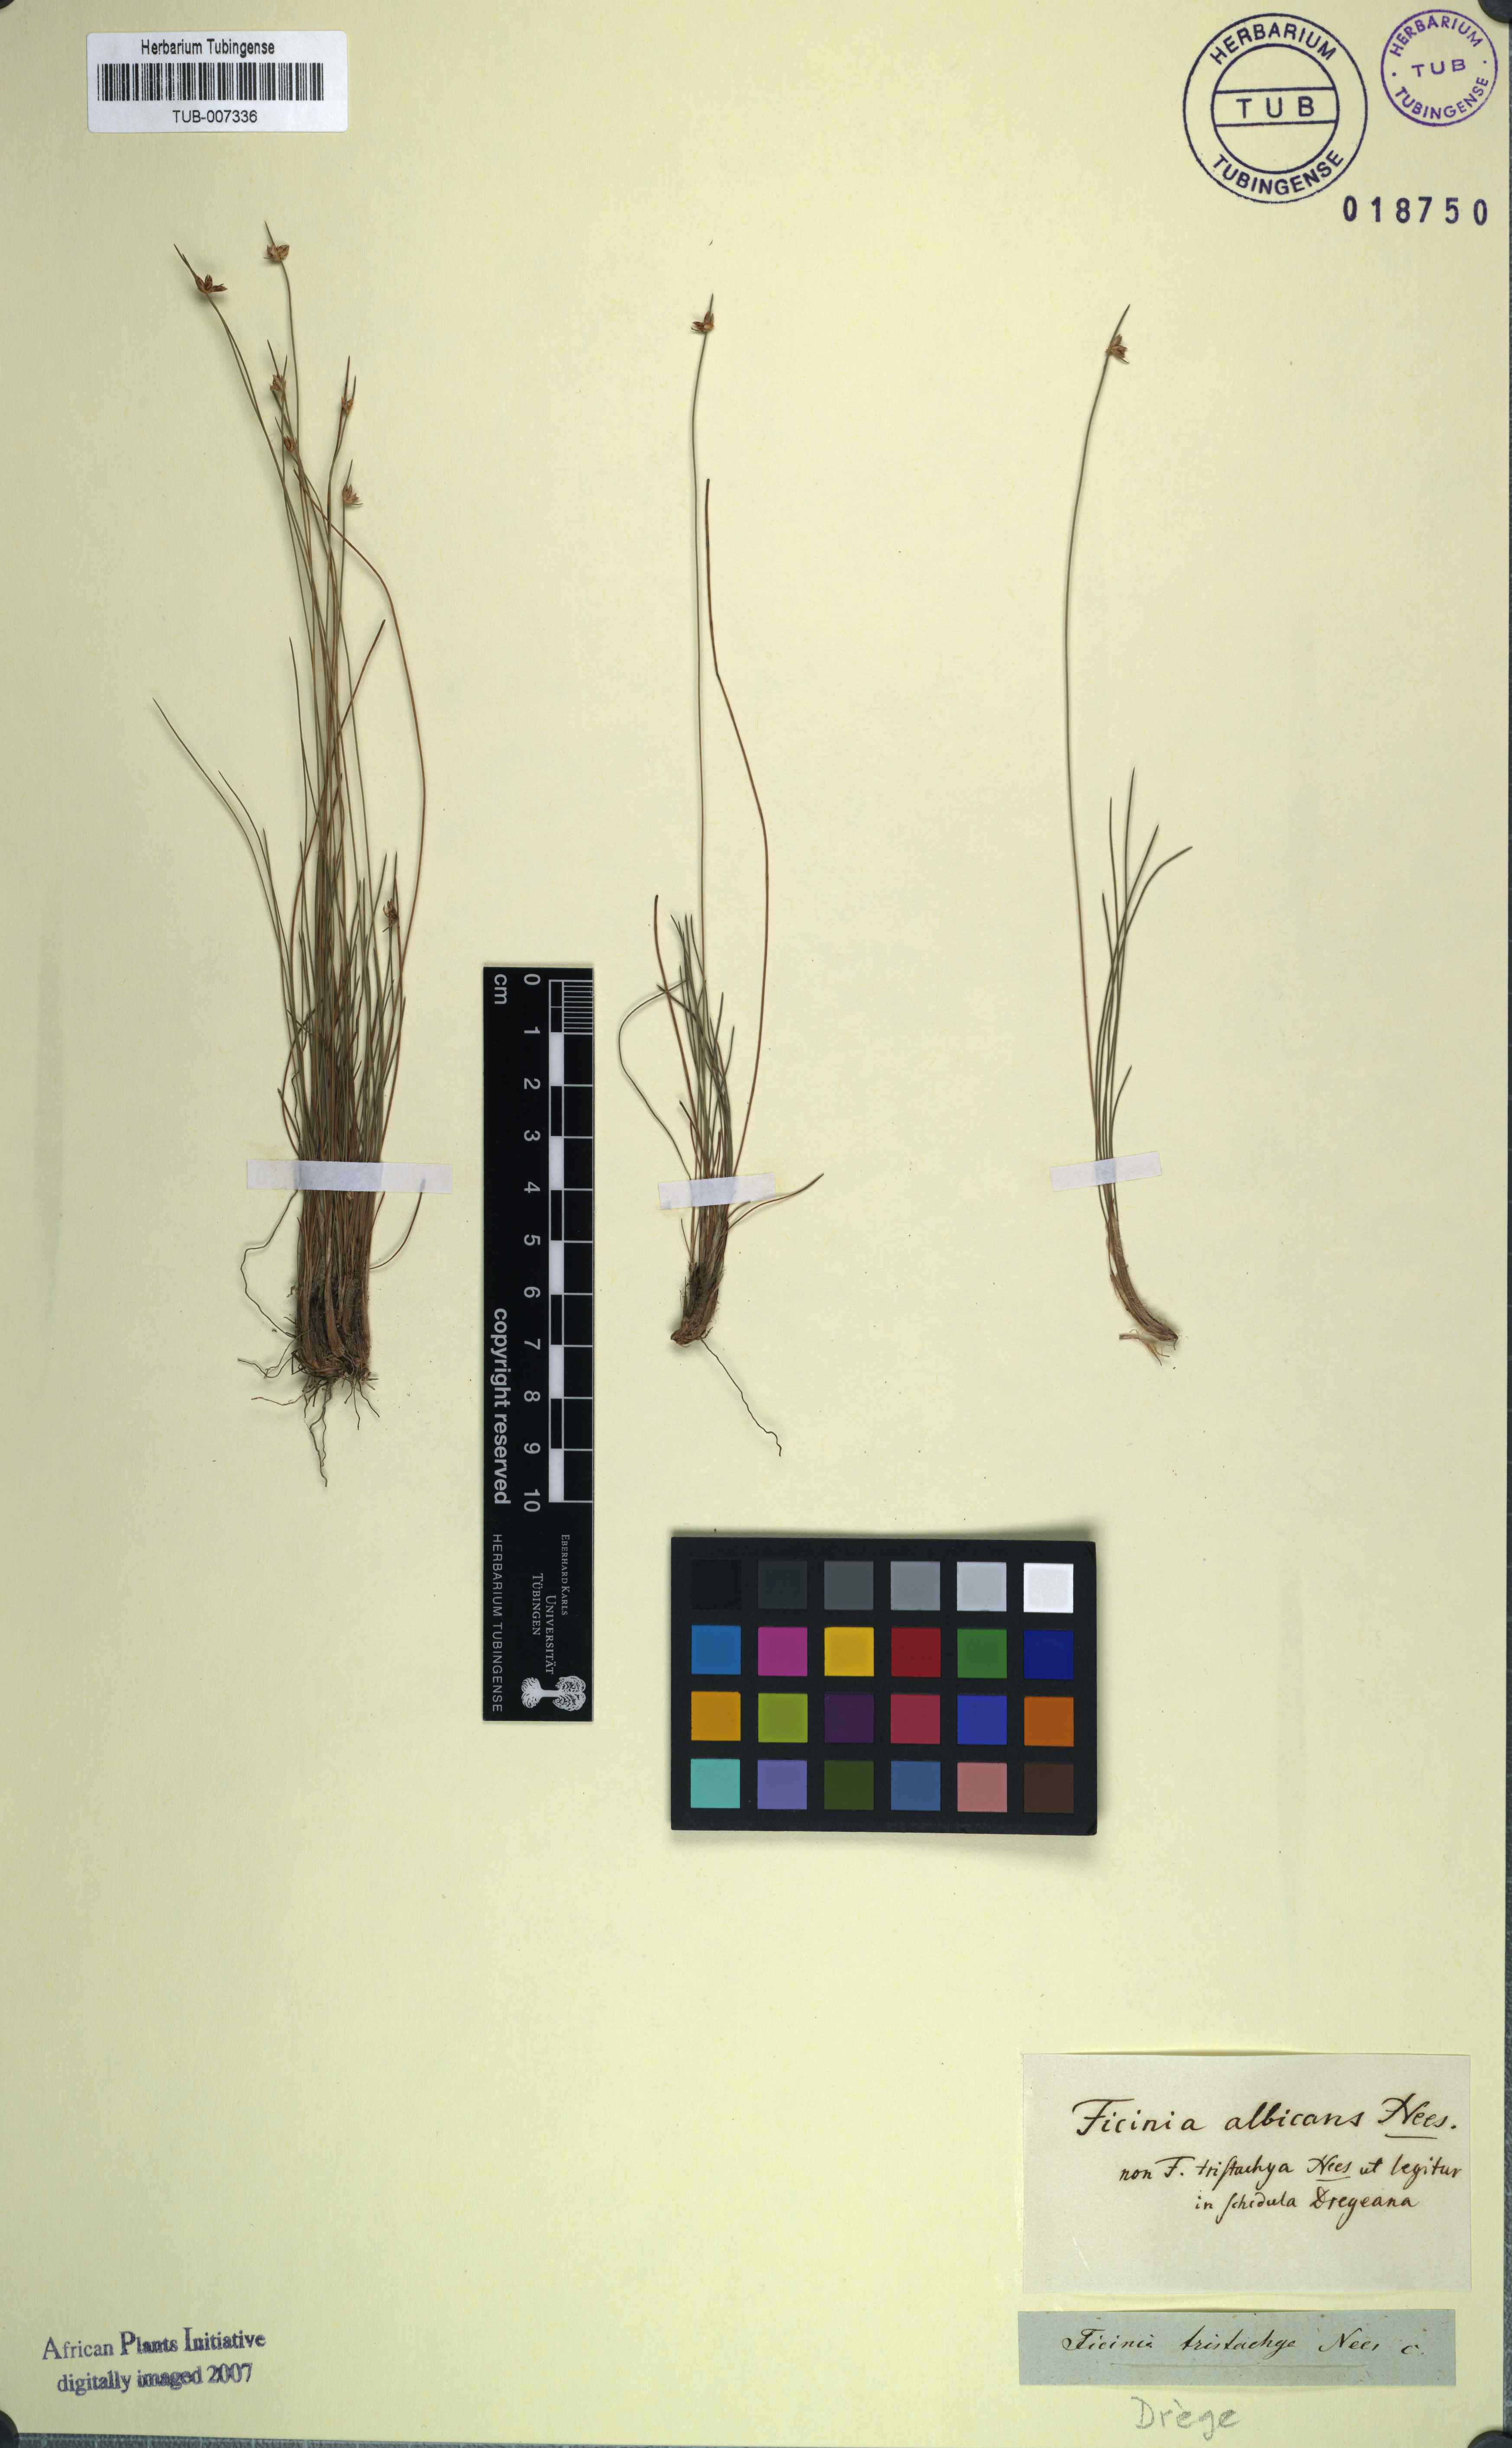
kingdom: Plantae
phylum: Tracheophyta
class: Liliopsida
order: Poales
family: Cyperaceae
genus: Ficinia
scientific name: Ficinia albicans
